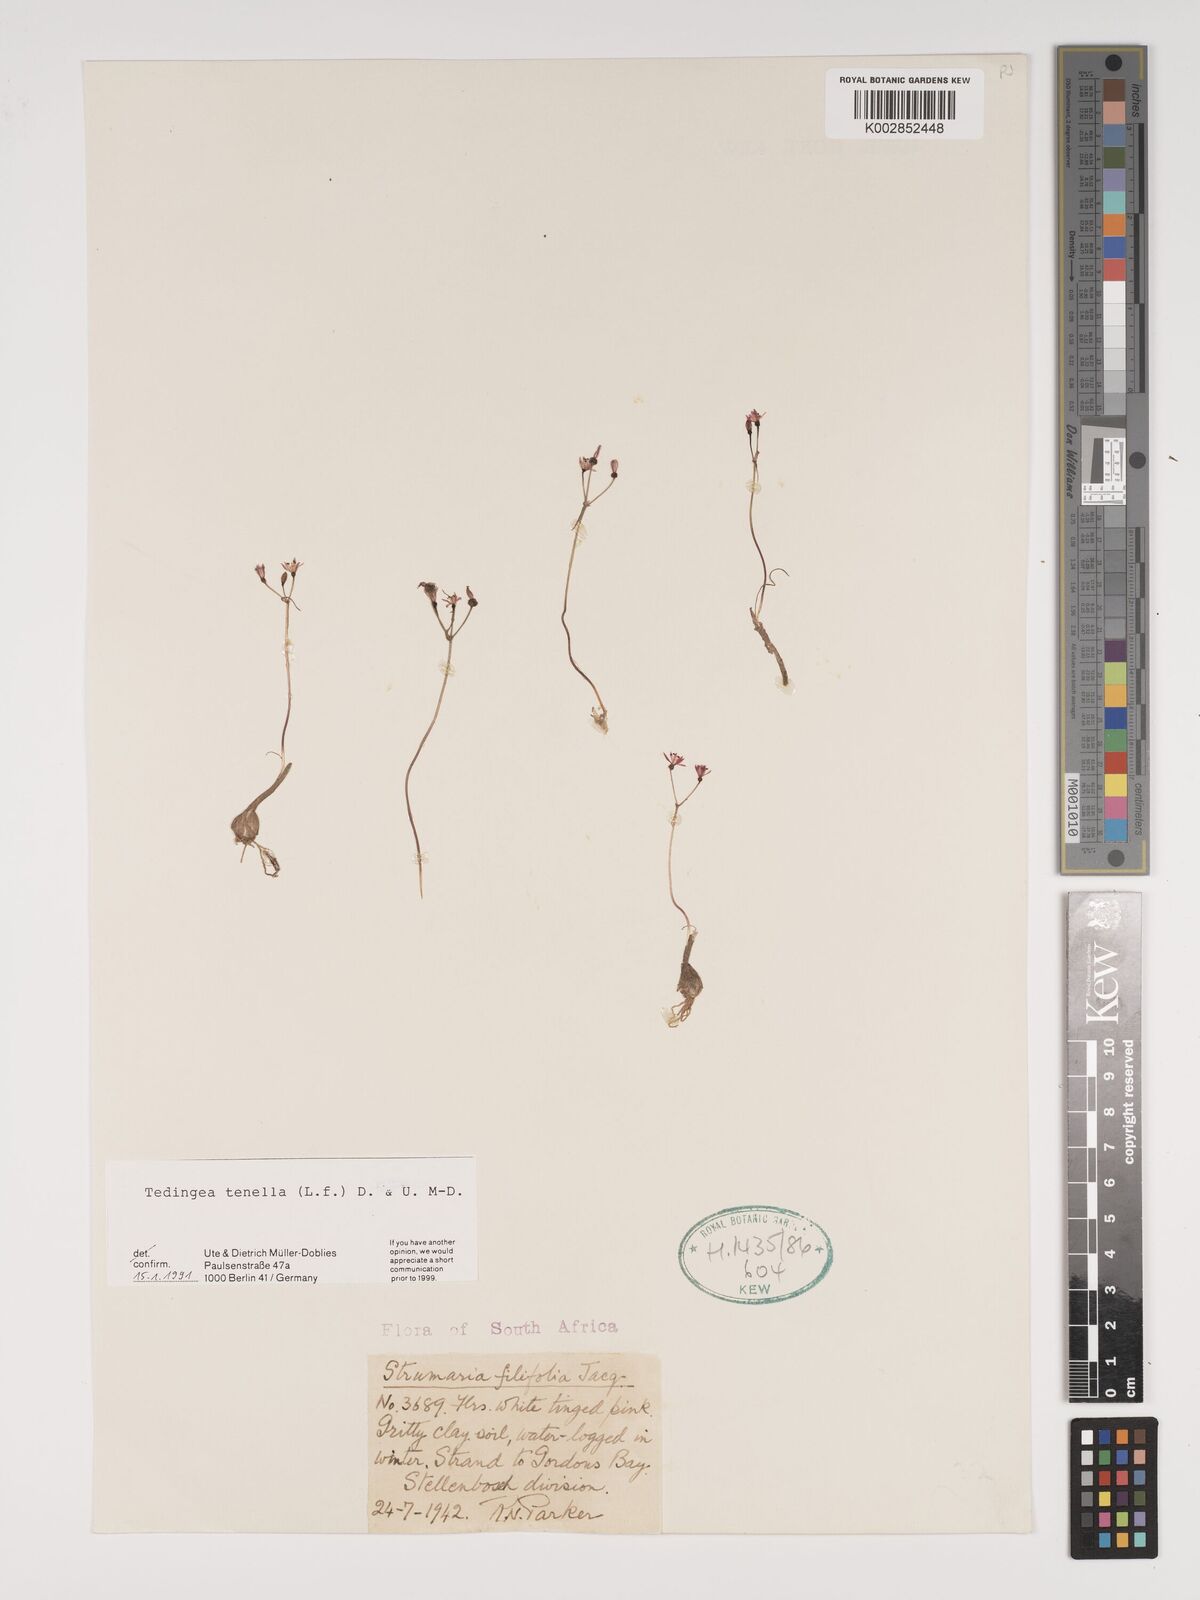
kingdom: Plantae
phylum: Tracheophyta
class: Liliopsida
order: Asparagales
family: Amaryllidaceae
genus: Strumaria
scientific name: Strumaria tenella
